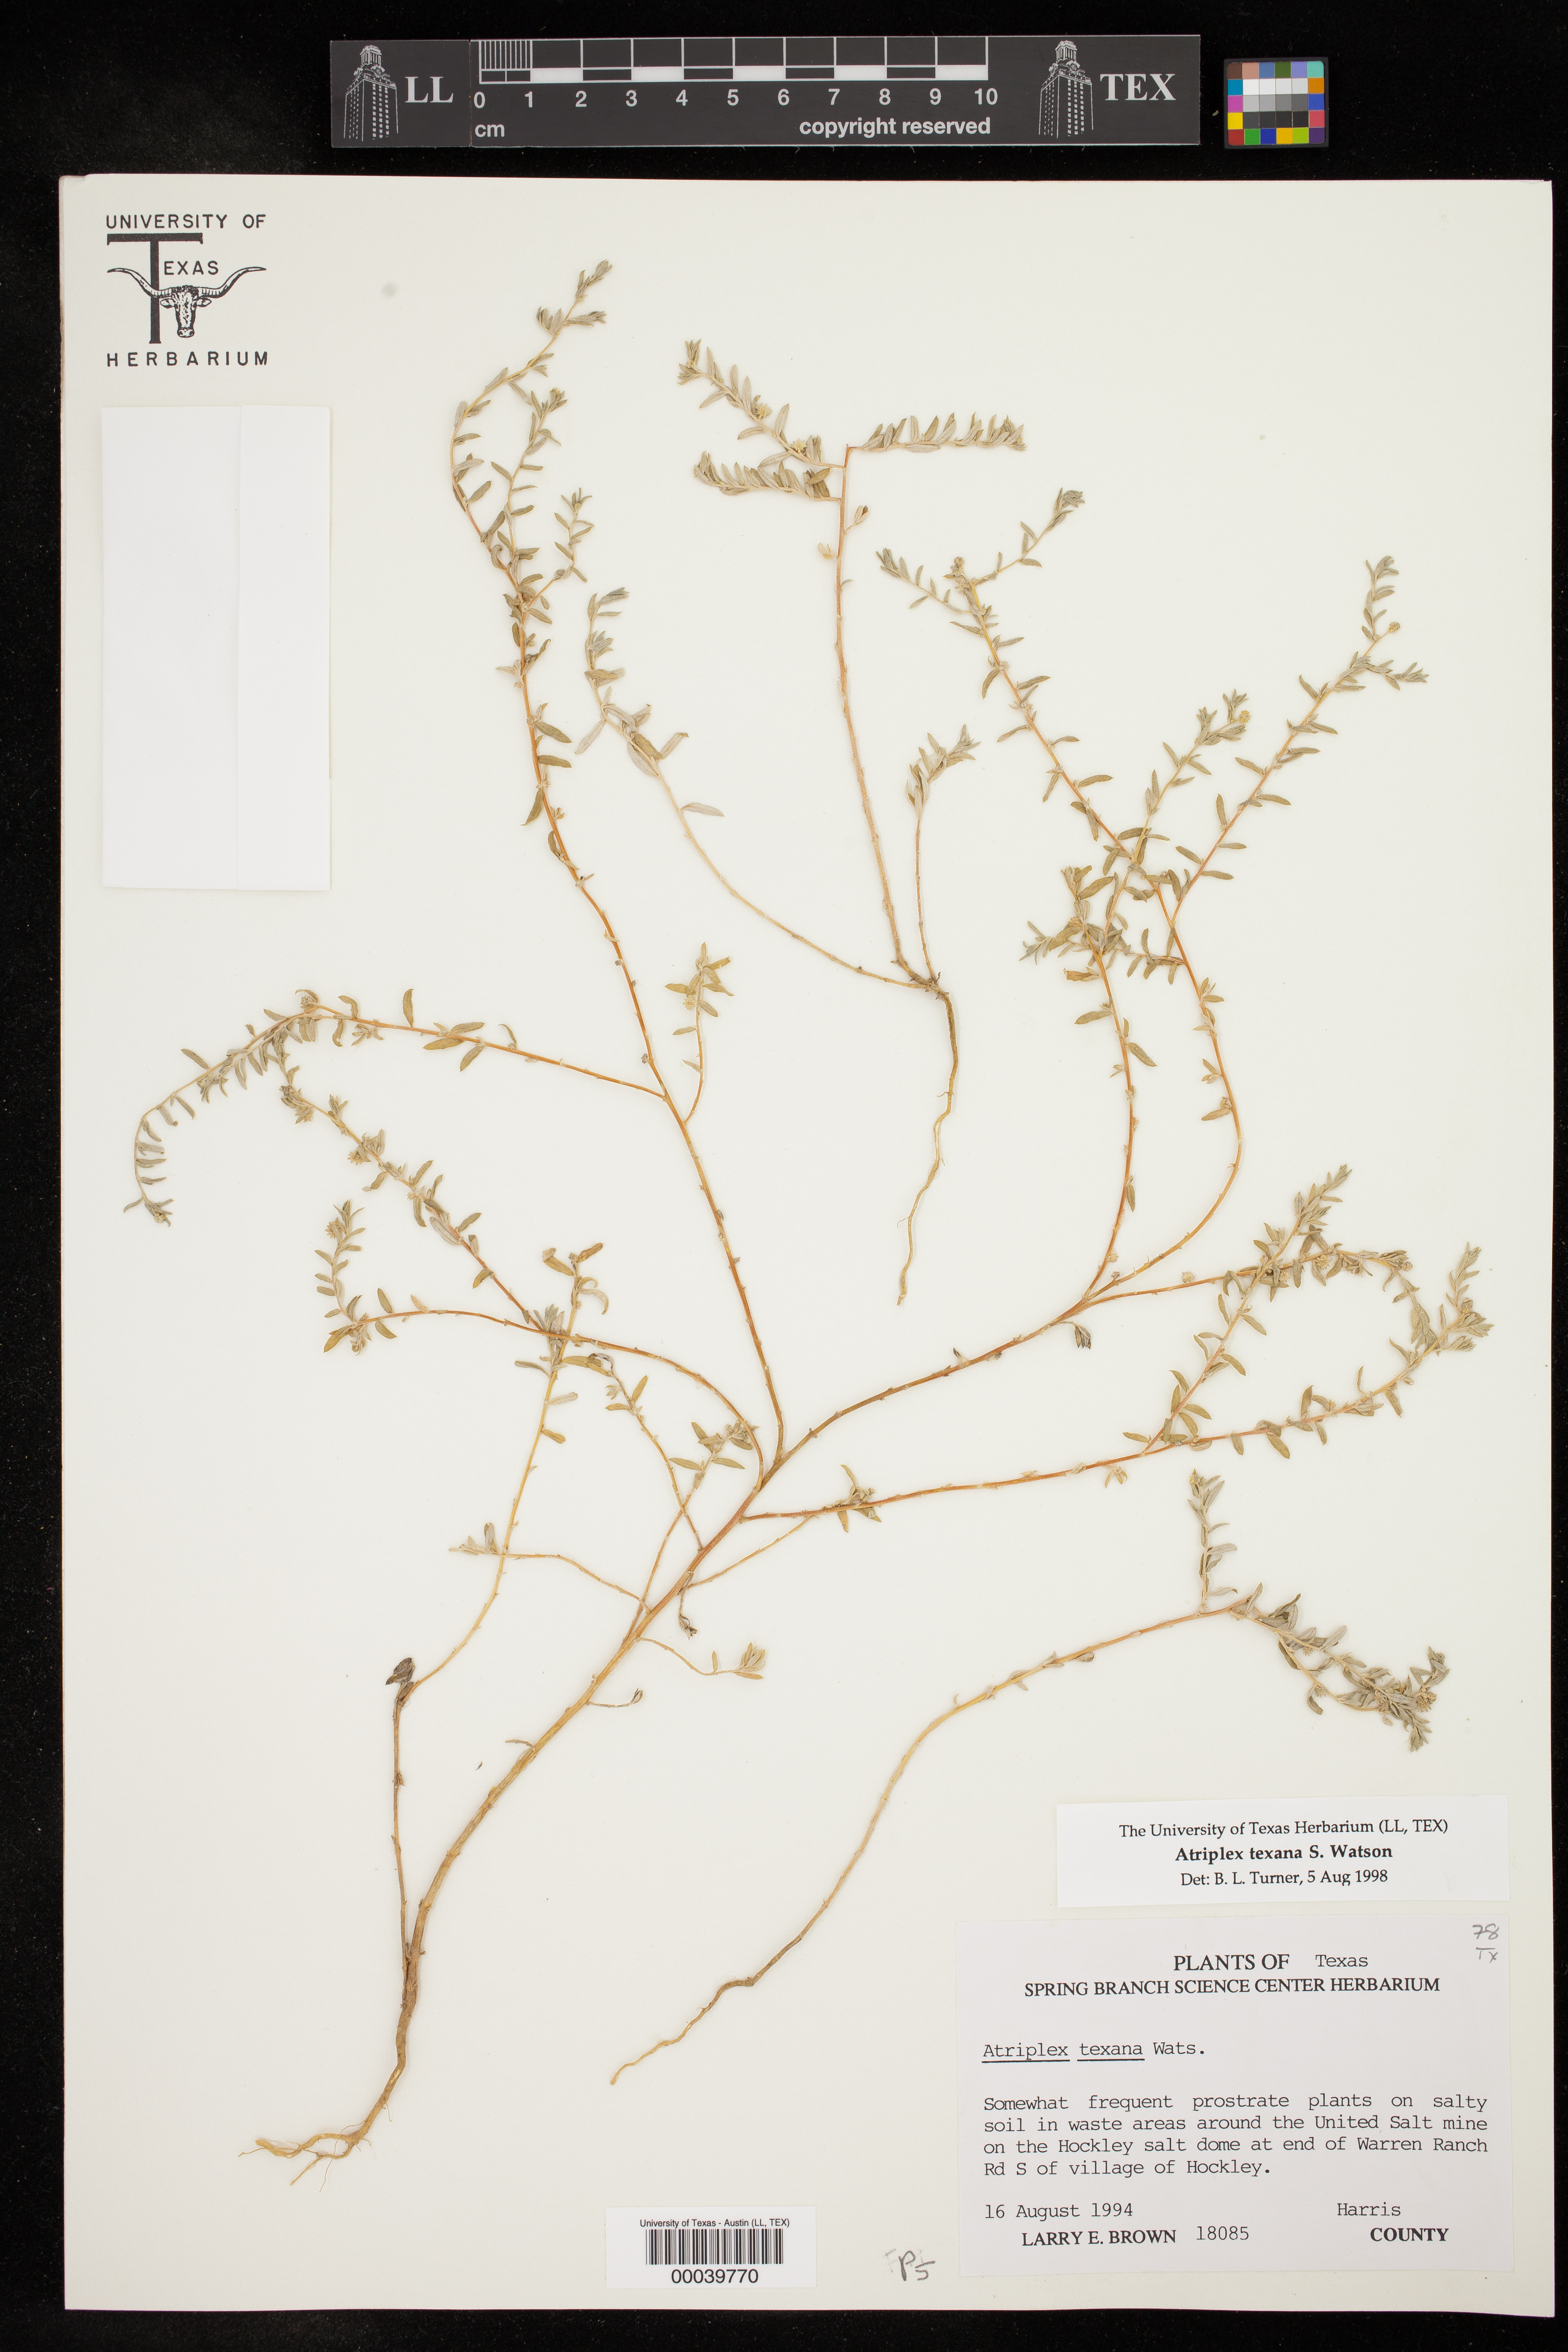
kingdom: Plantae
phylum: Tracheophyta
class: Magnoliopsida
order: Caryophyllales
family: Amaranthaceae
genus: Atriplex
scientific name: Atriplex texana
